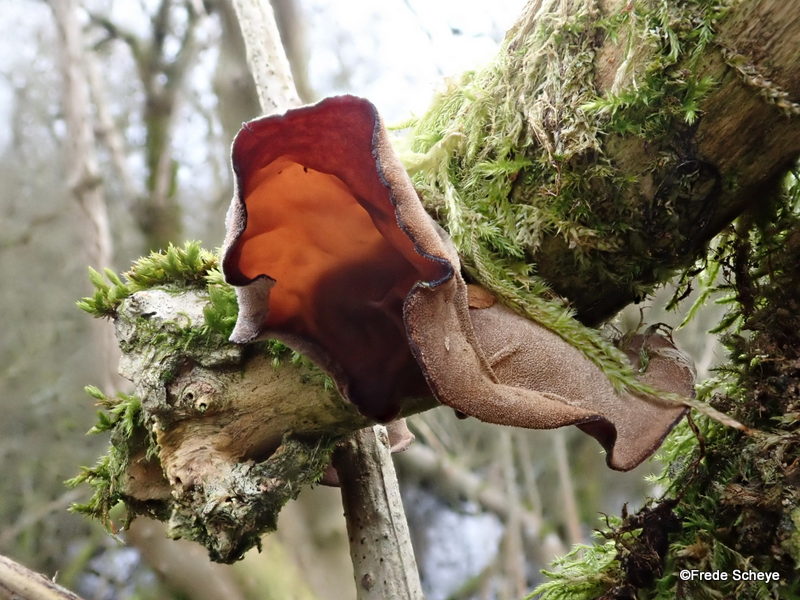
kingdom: Fungi
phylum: Basidiomycota
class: Agaricomycetes
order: Auriculariales
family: Auriculariaceae
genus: Auricularia
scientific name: Auricularia auricula-judae
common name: almindelig judasøre
